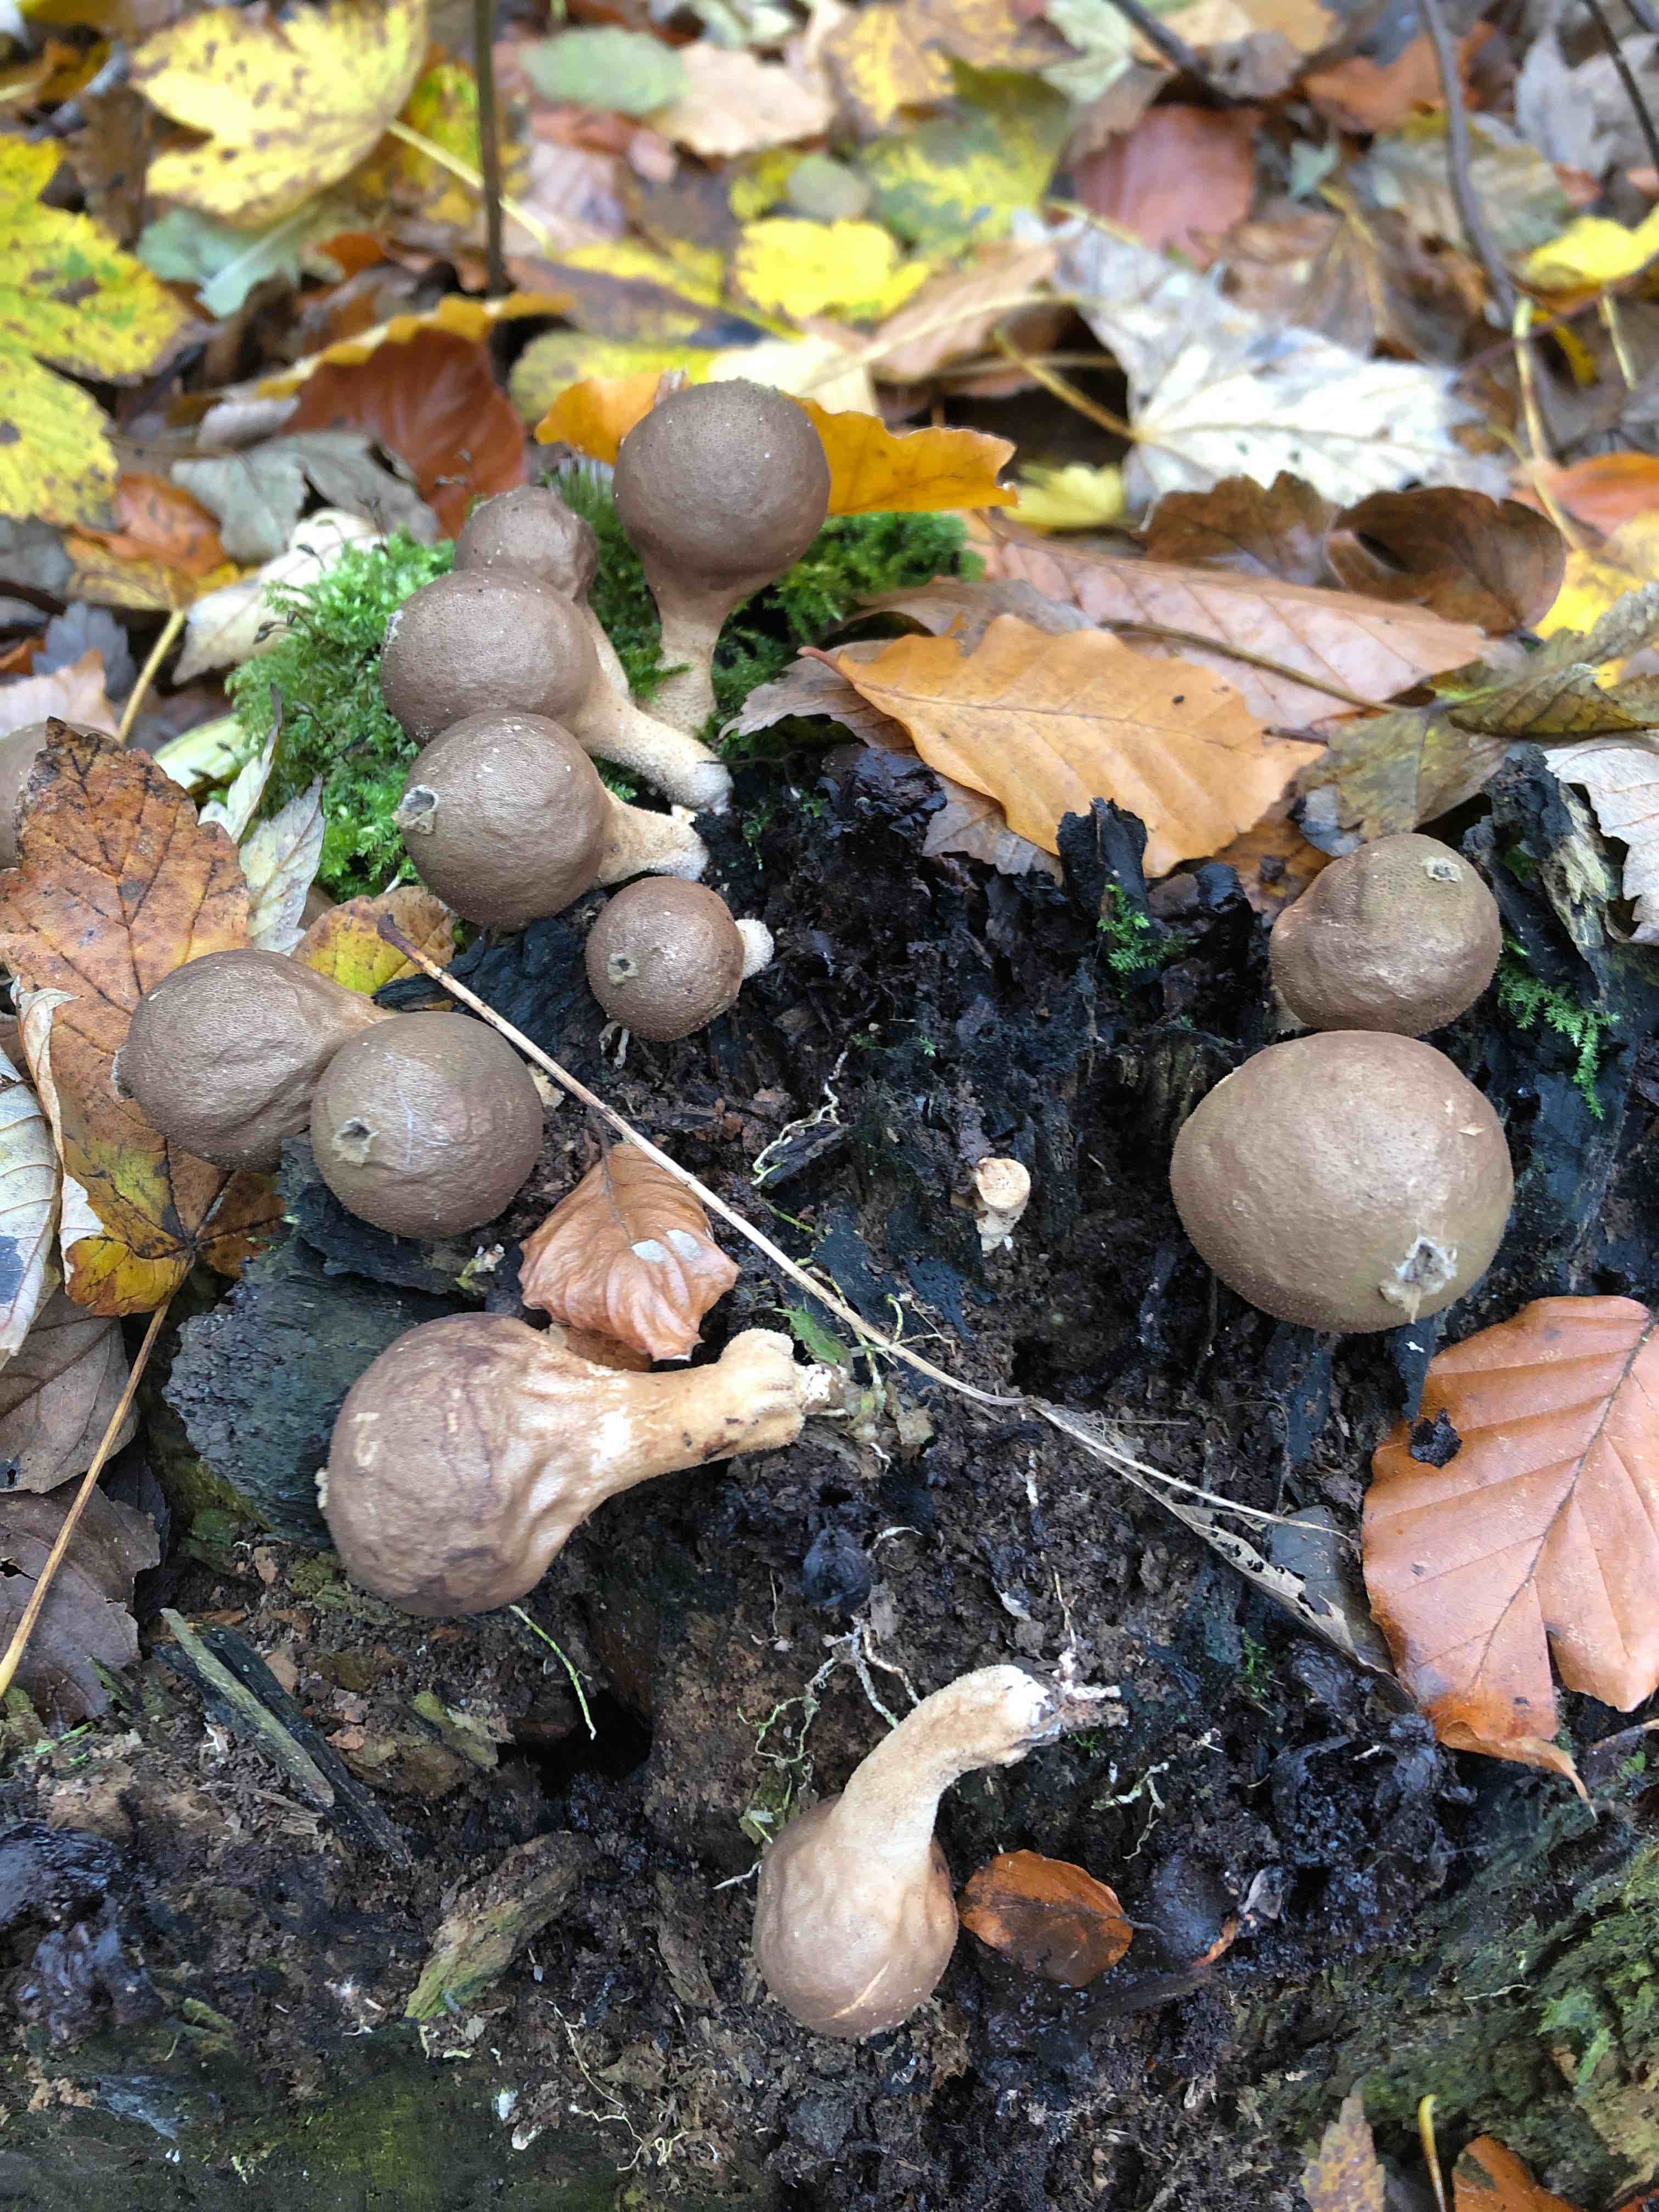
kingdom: Fungi
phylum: Basidiomycota
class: Agaricomycetes
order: Agaricales
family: Lycoperdaceae
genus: Apioperdon
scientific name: Apioperdon pyriforme
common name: pære-støvbold
